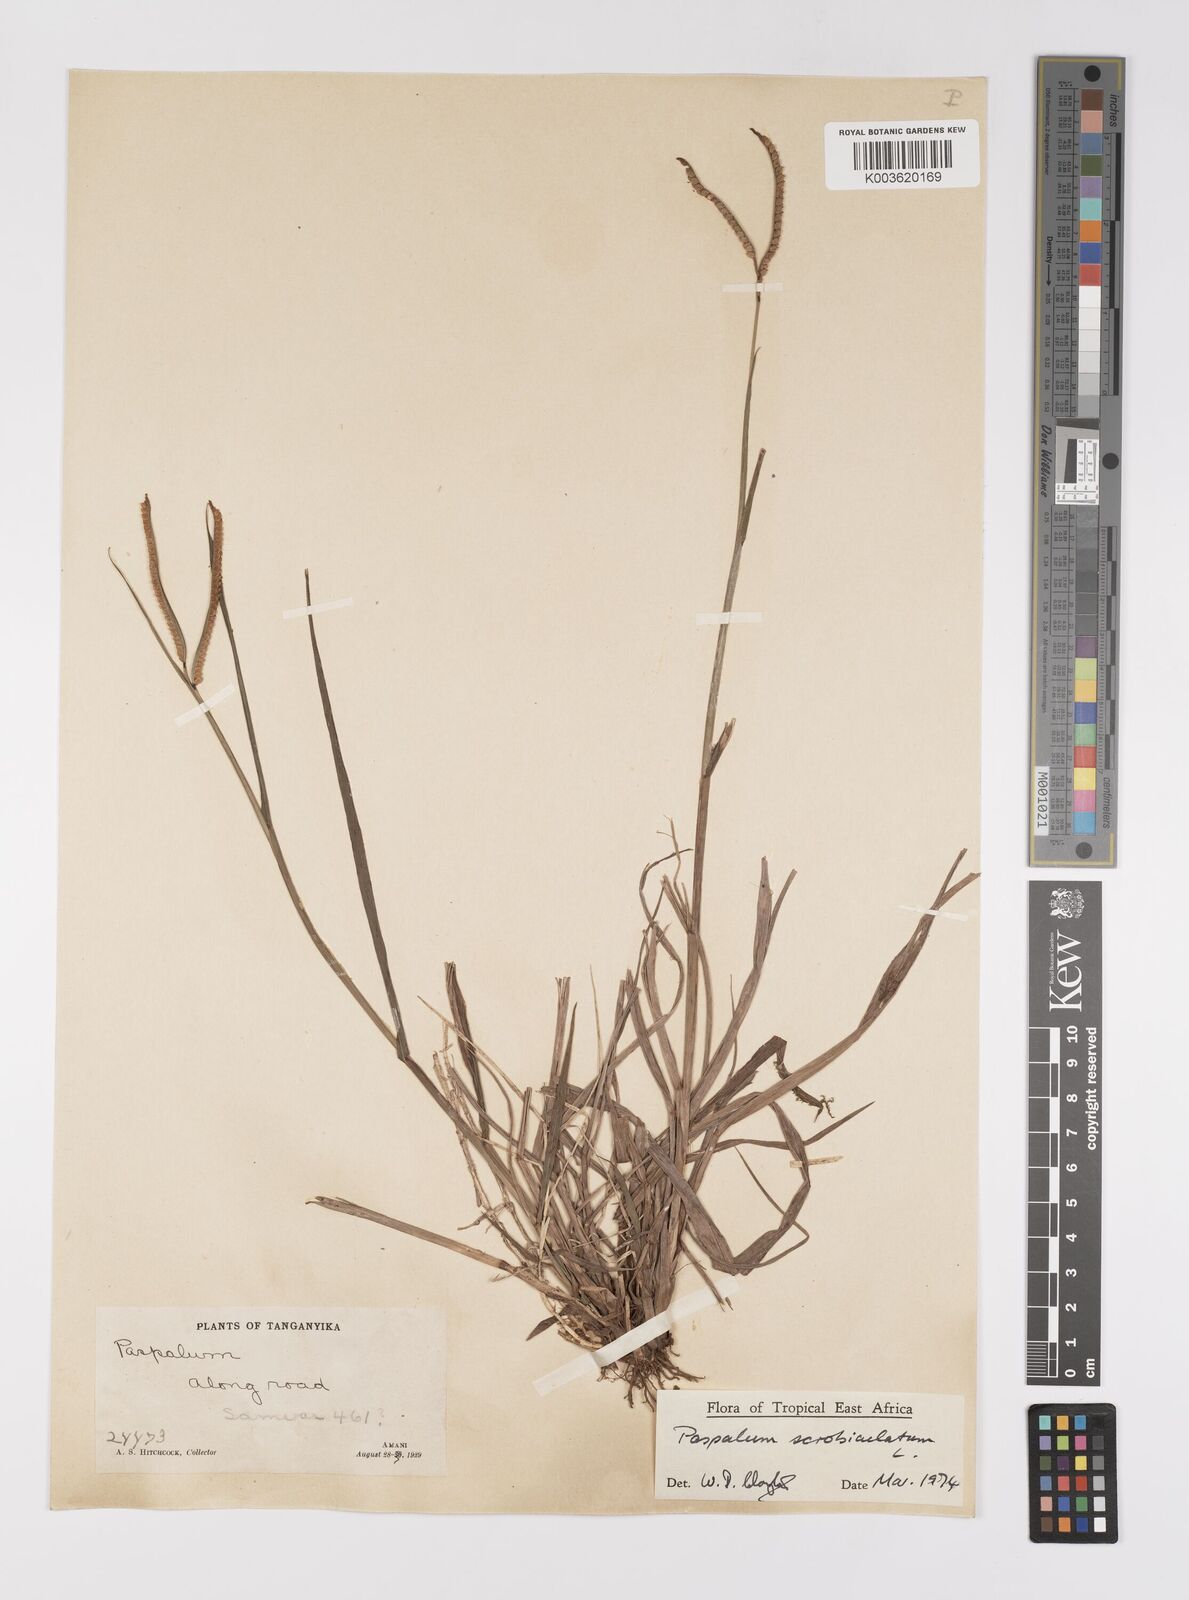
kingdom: Plantae
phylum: Tracheophyta
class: Liliopsida
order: Poales
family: Poaceae
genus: Paspalum
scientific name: Paspalum scrobiculatum
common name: Kodo millet
